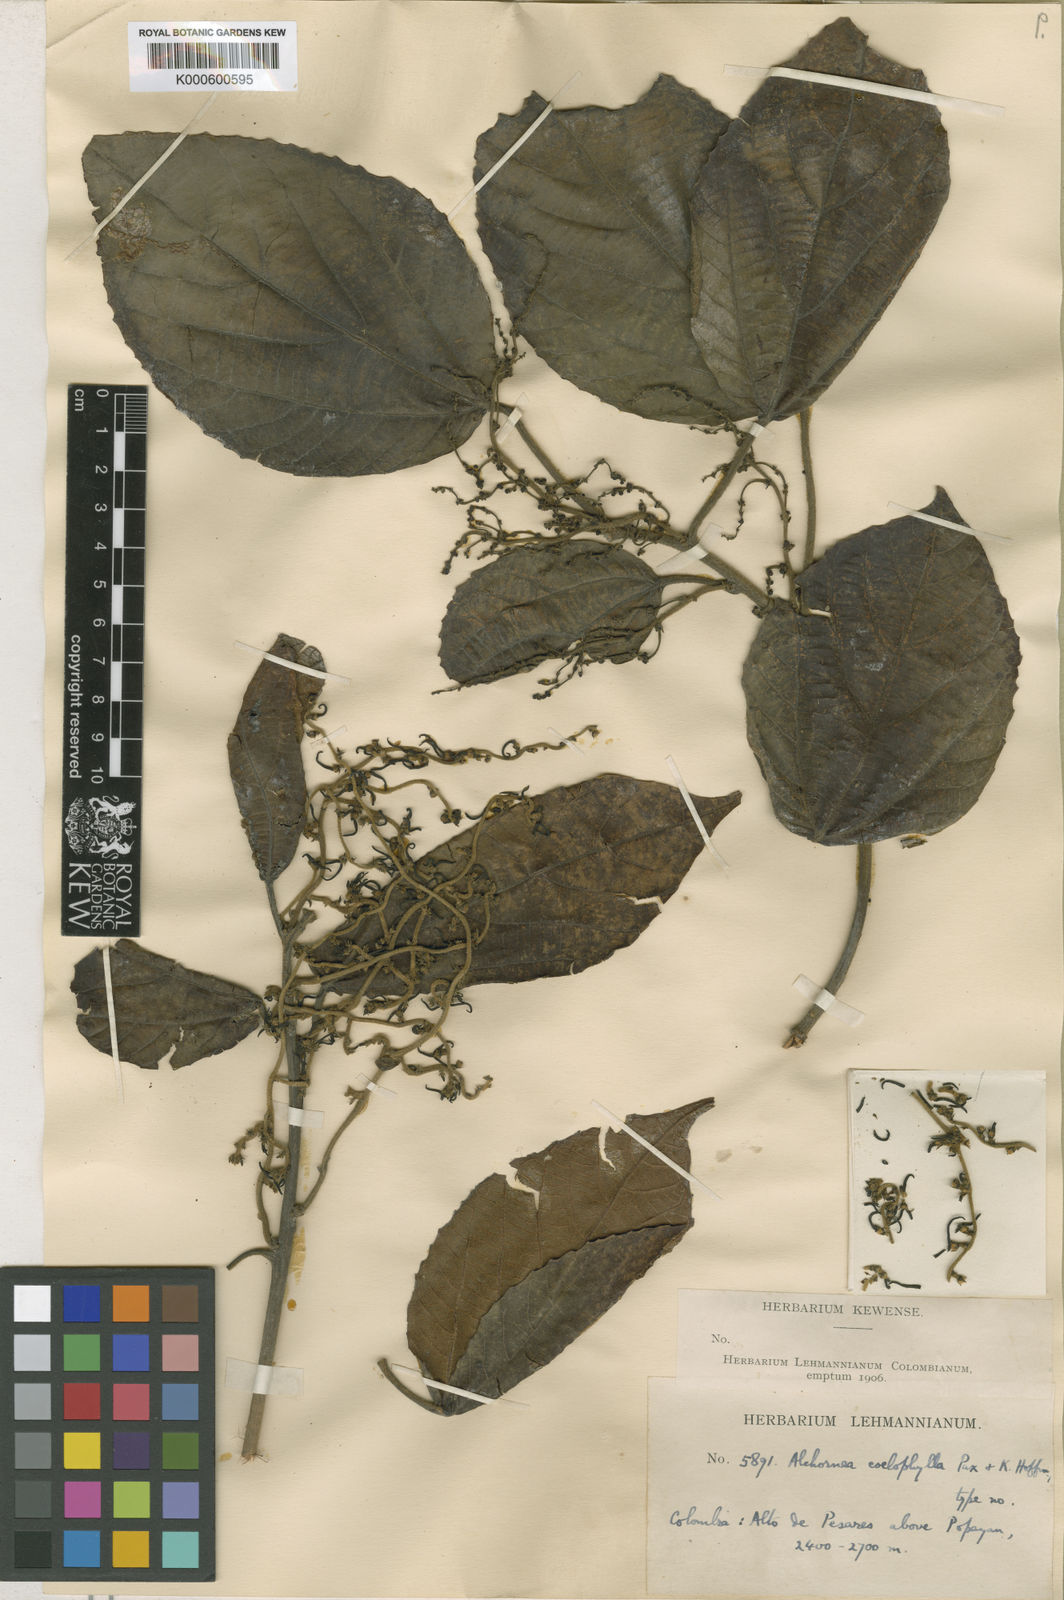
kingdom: Plantae
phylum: Tracheophyta
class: Magnoliopsida
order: Malpighiales
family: Euphorbiaceae
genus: Alchornea
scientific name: Alchornea coelophylla
